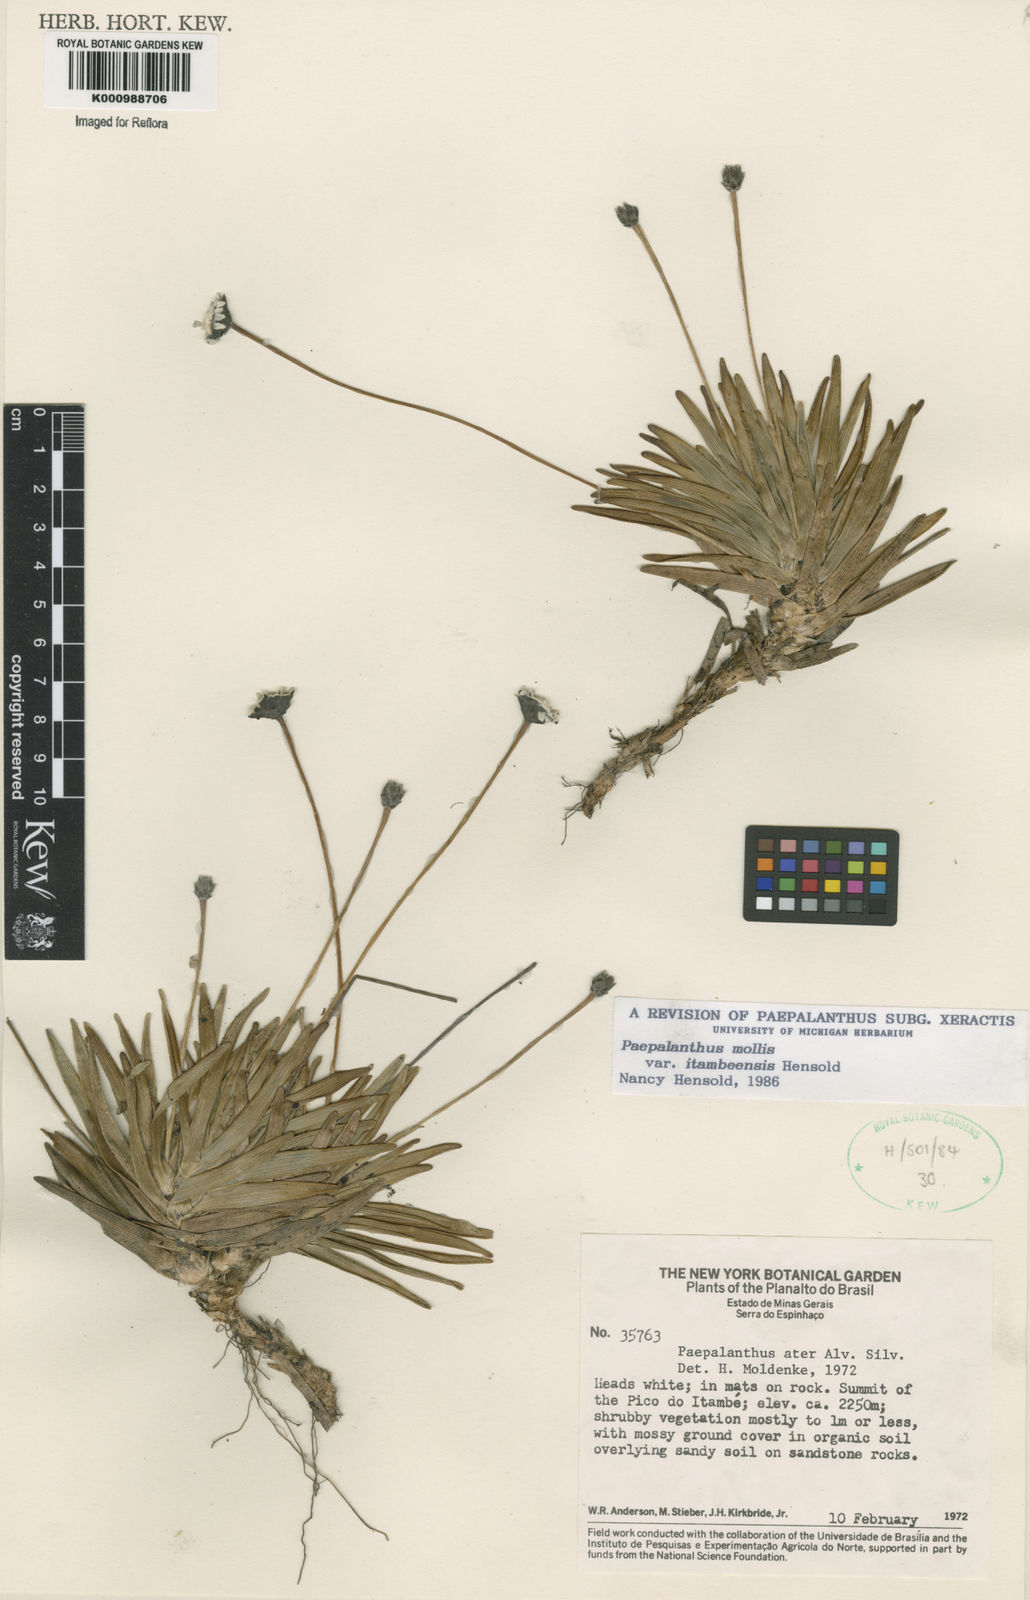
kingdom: Plantae
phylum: Tracheophyta
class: Liliopsida
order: Poales
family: Eriocaulaceae
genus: Paepalanthus
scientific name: Paepalanthus mollis
